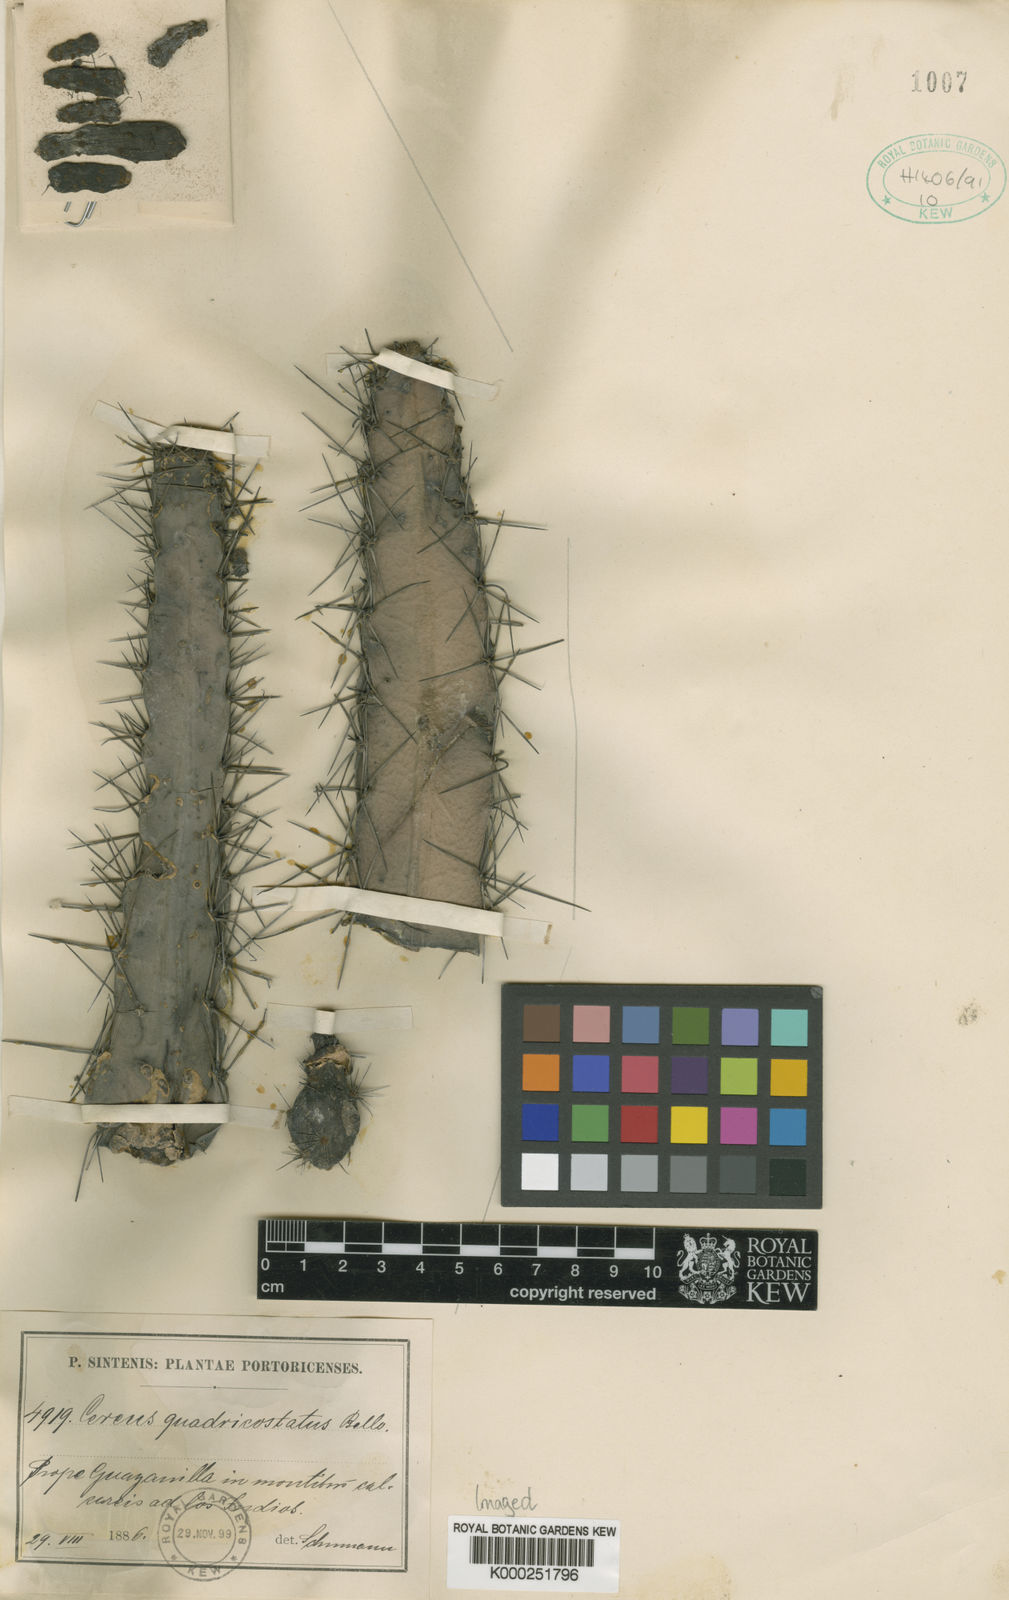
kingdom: Plantae
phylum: Tracheophyta
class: Magnoliopsida
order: Caryophyllales
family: Cactaceae
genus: Leptocereus
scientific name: Leptocereus quadricostatus
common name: Sebucan
